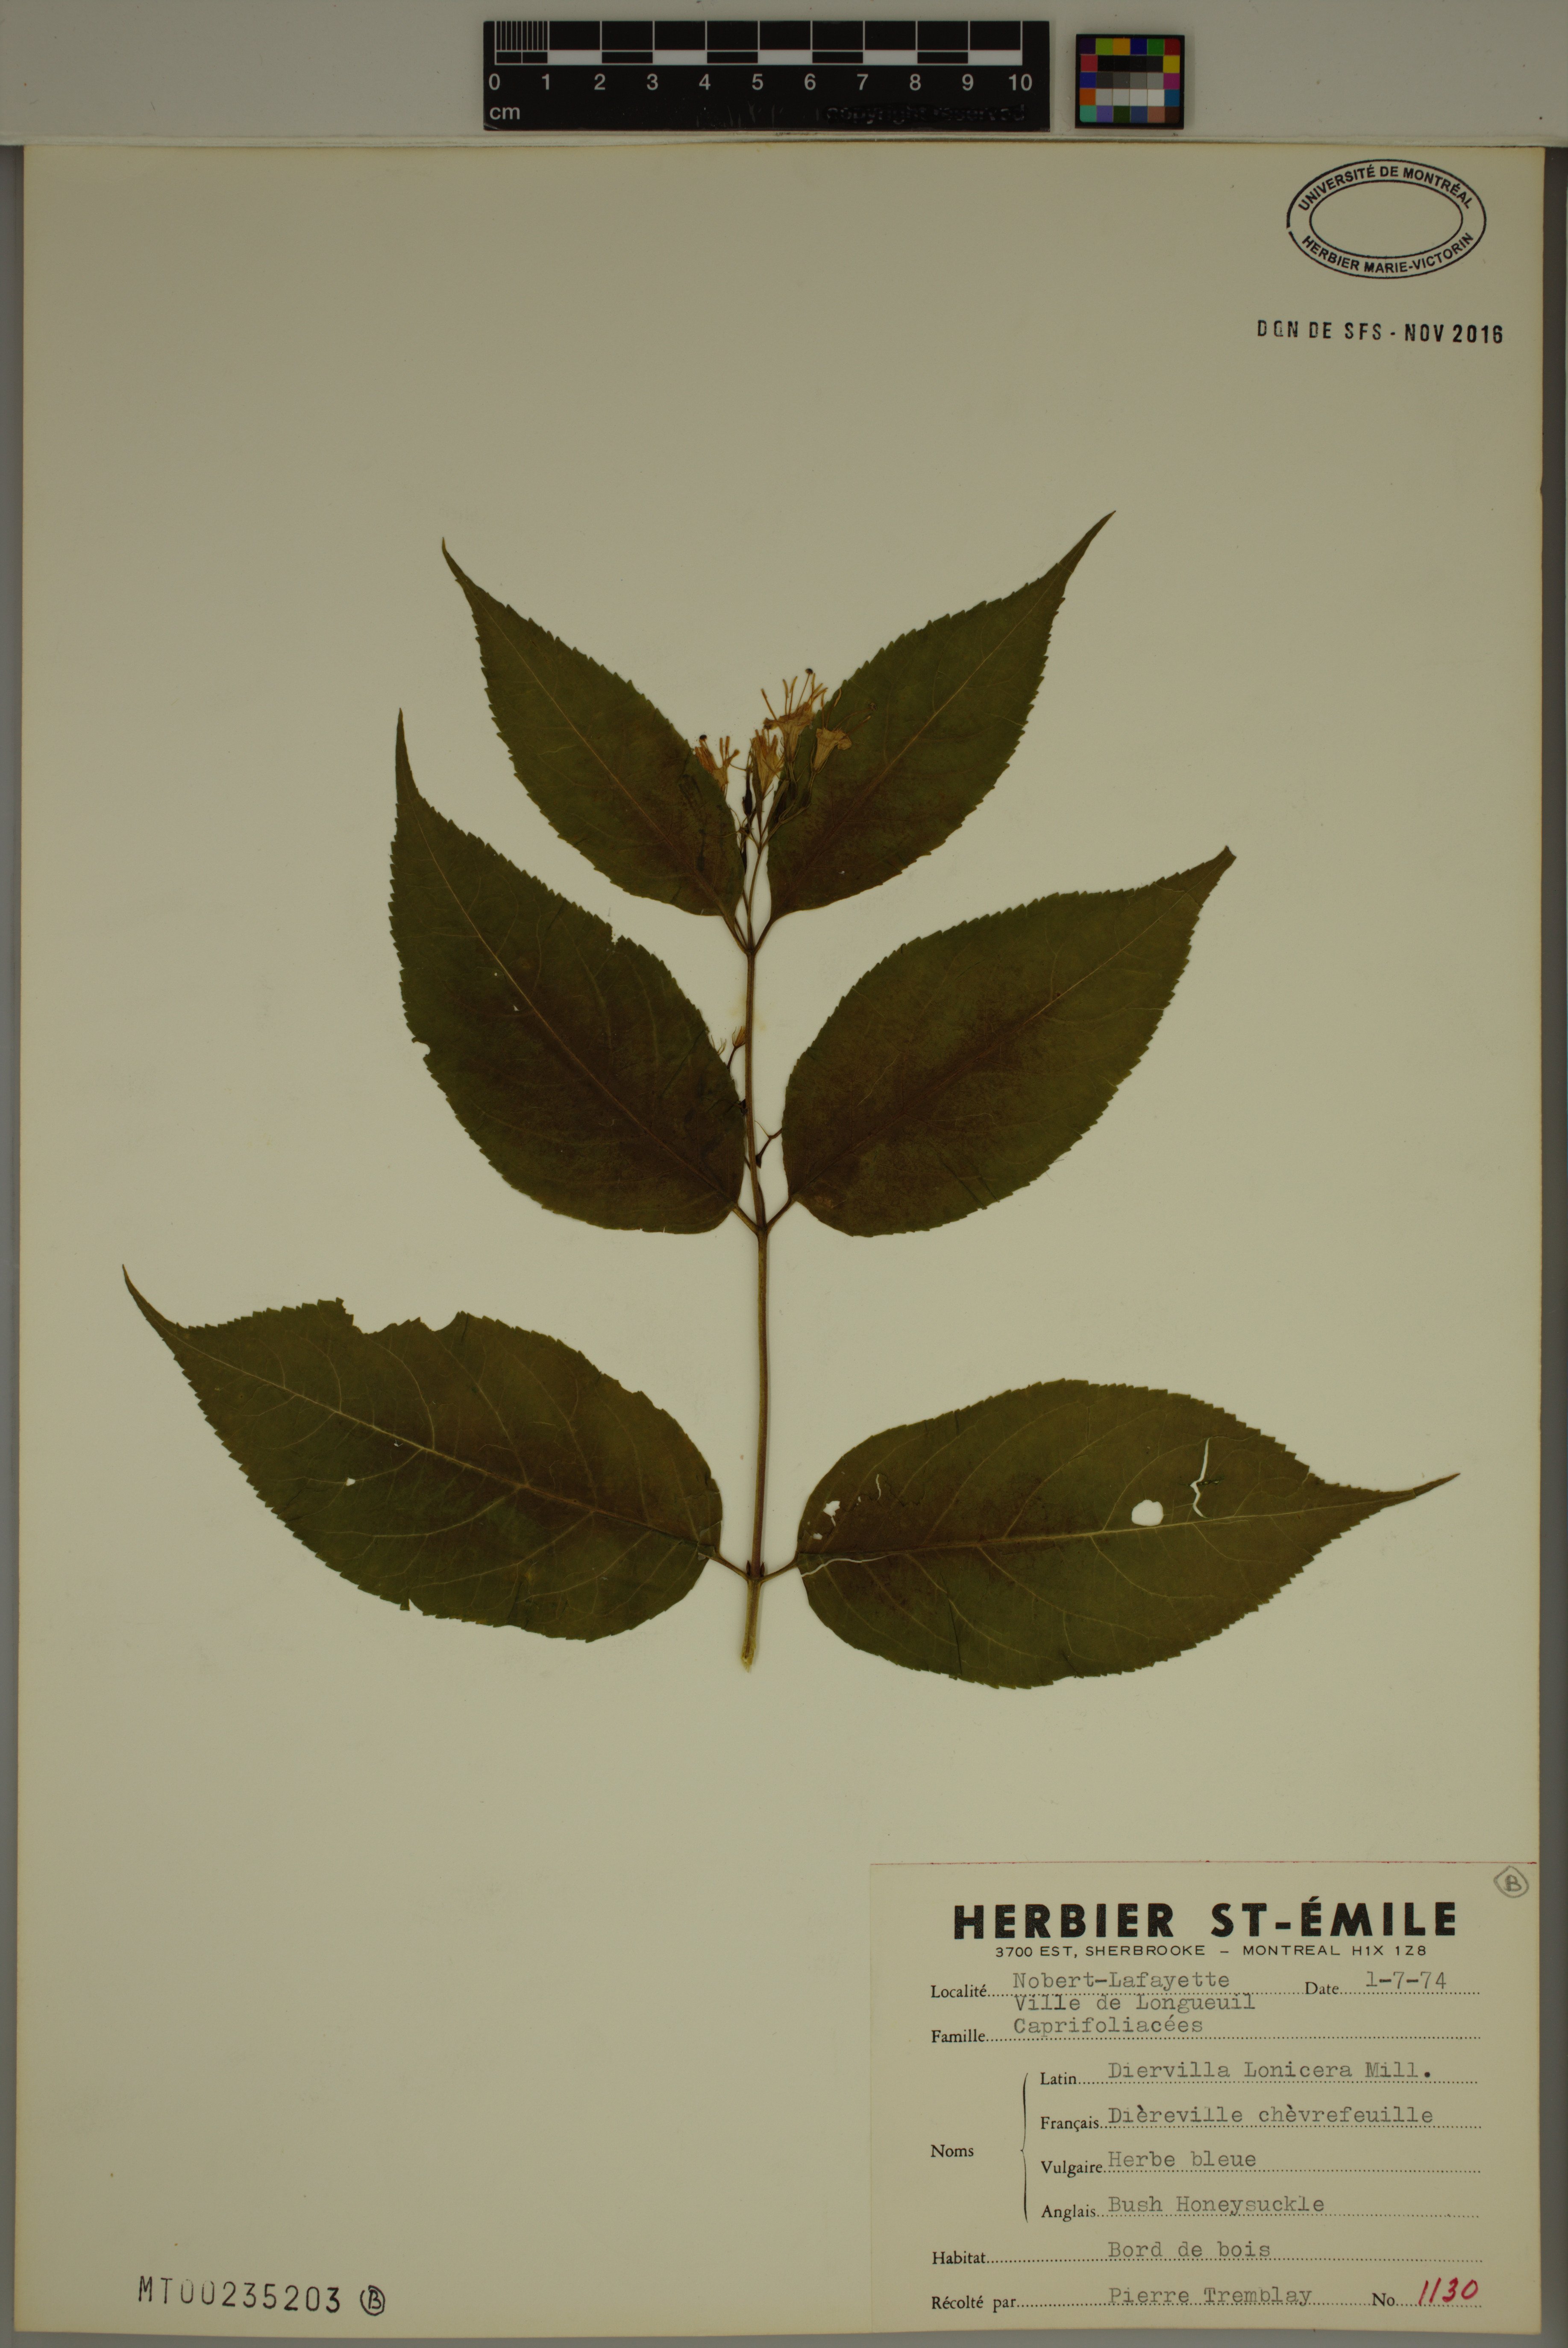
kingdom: Plantae
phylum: Tracheophyta
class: Magnoliopsida
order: Dipsacales
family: Caprifoliaceae
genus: Diervilla
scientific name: Diervilla lonicera
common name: Bush-honeysuckle
